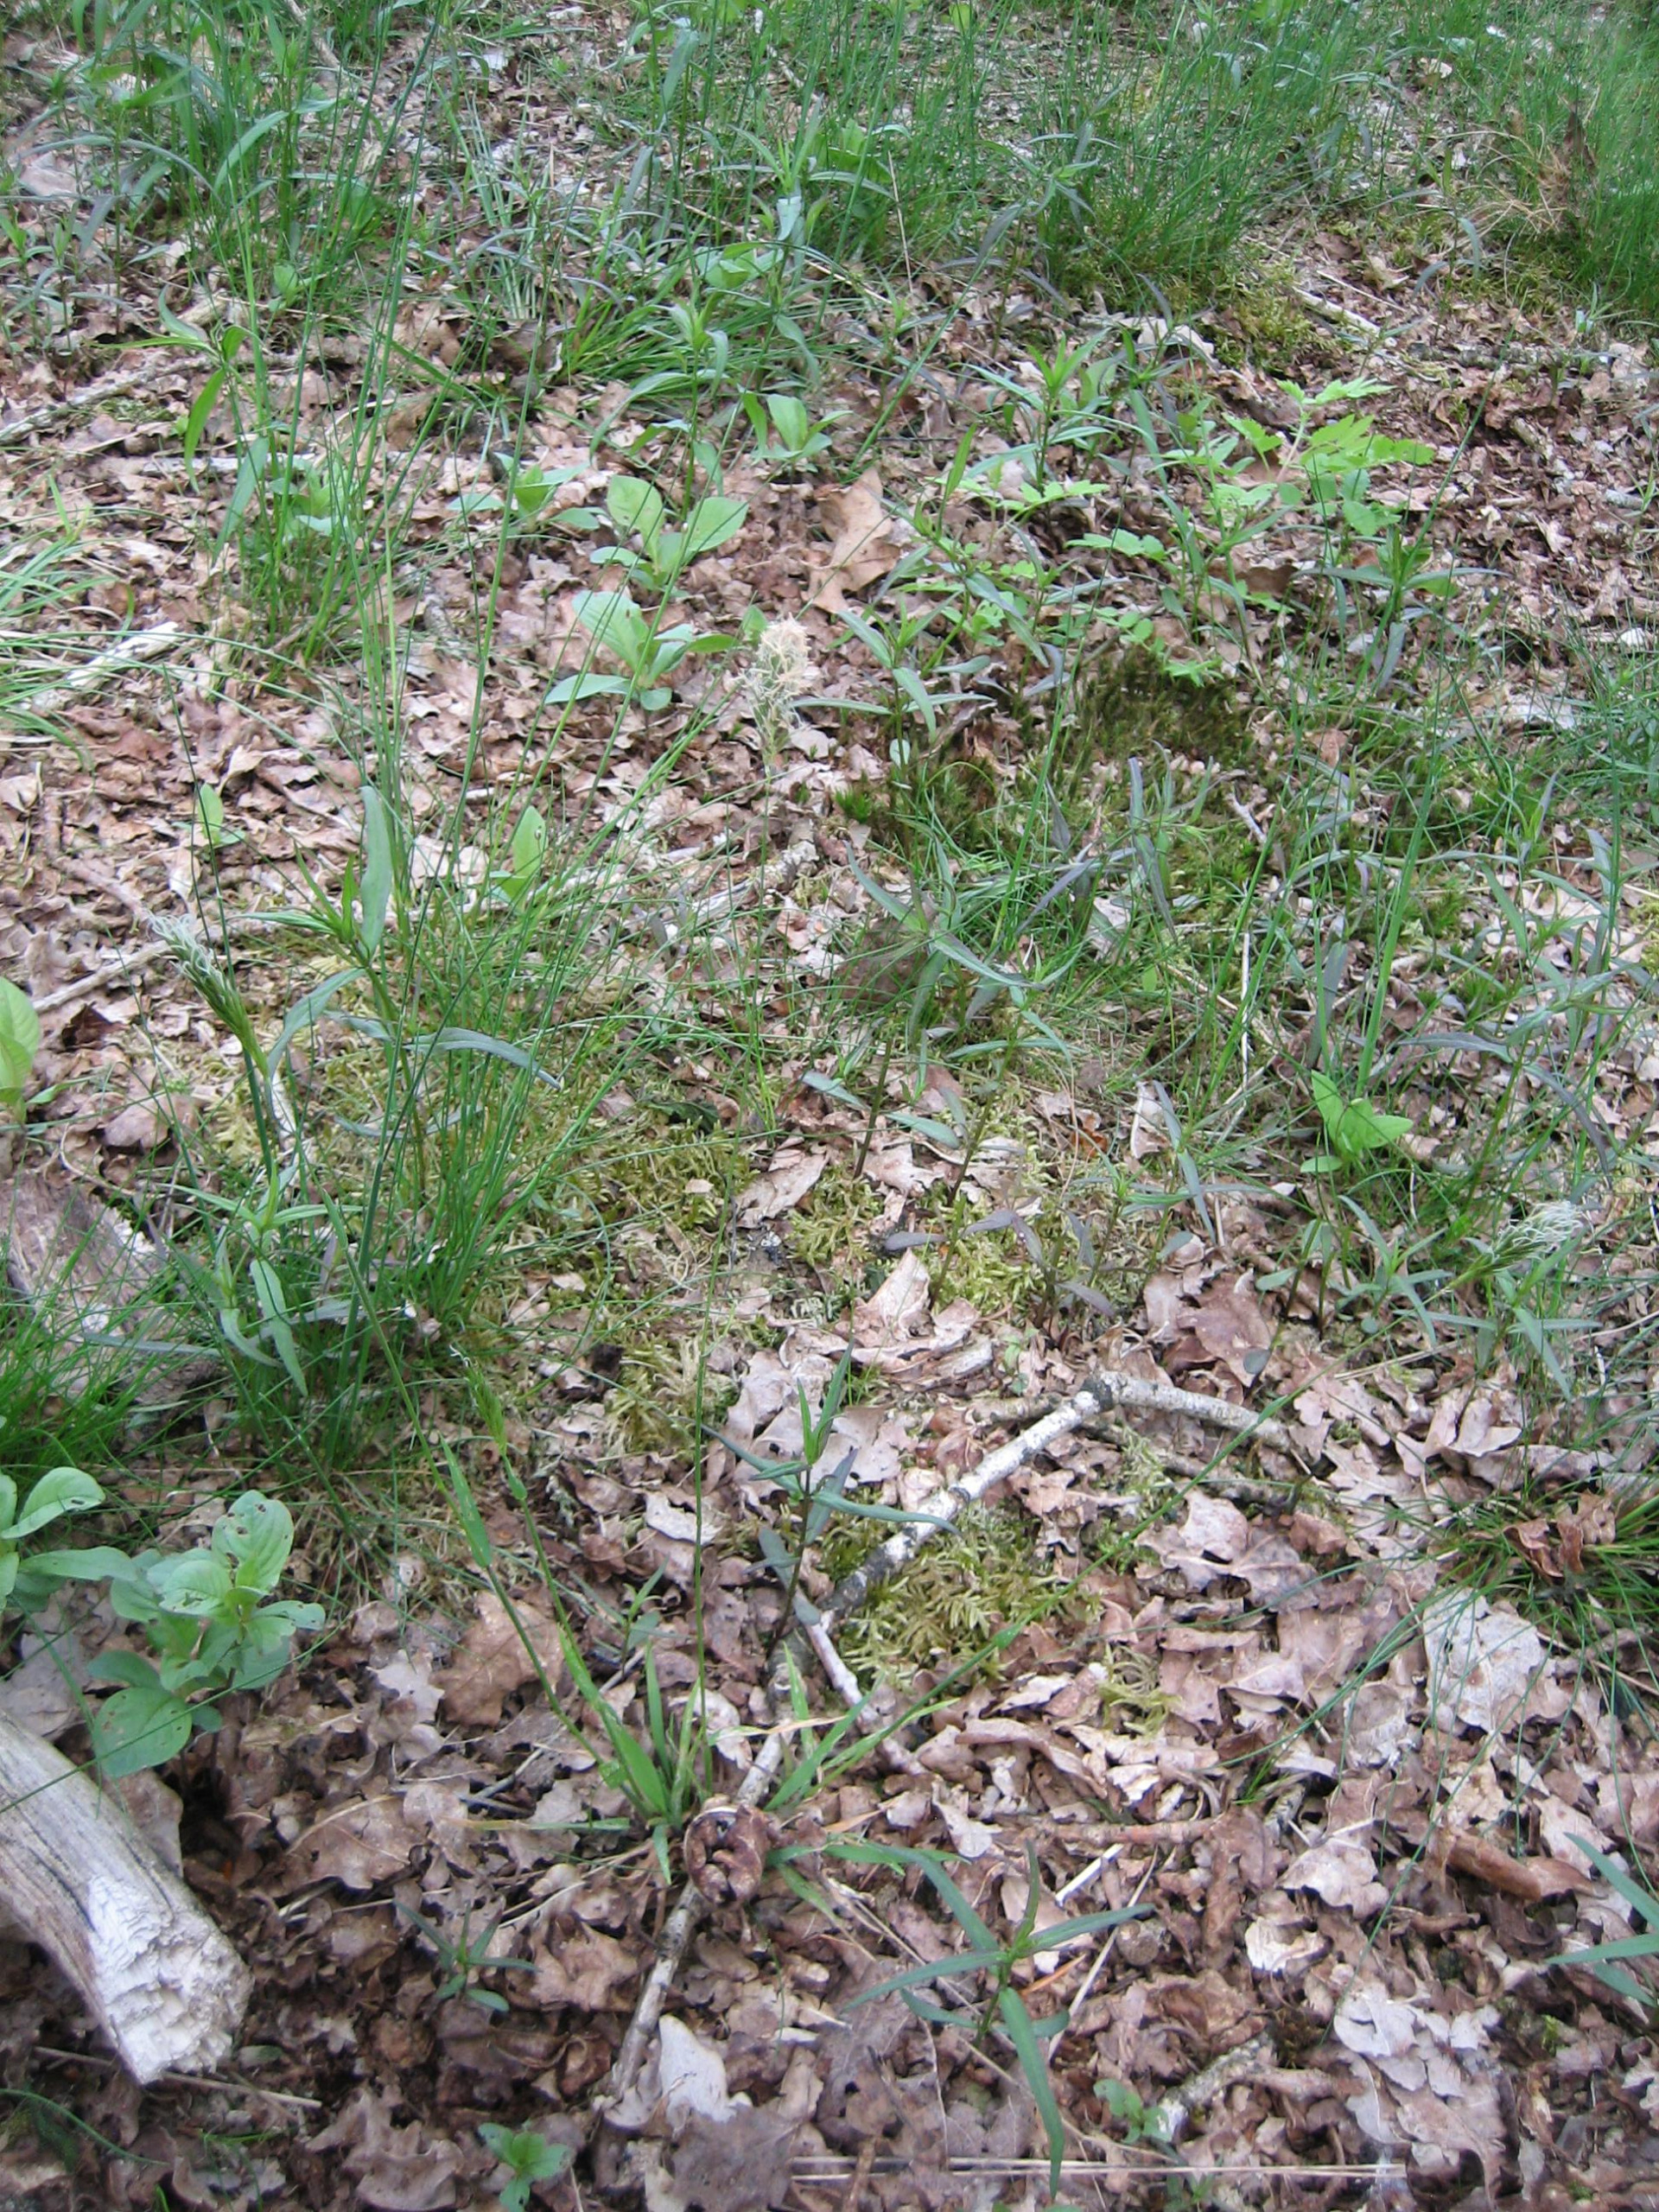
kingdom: Plantae
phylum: Tracheophyta
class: Liliopsida
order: Poales
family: Poaceae
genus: Anthoxanthum
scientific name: Anthoxanthum odoratum
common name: Vellugtende gulaks
